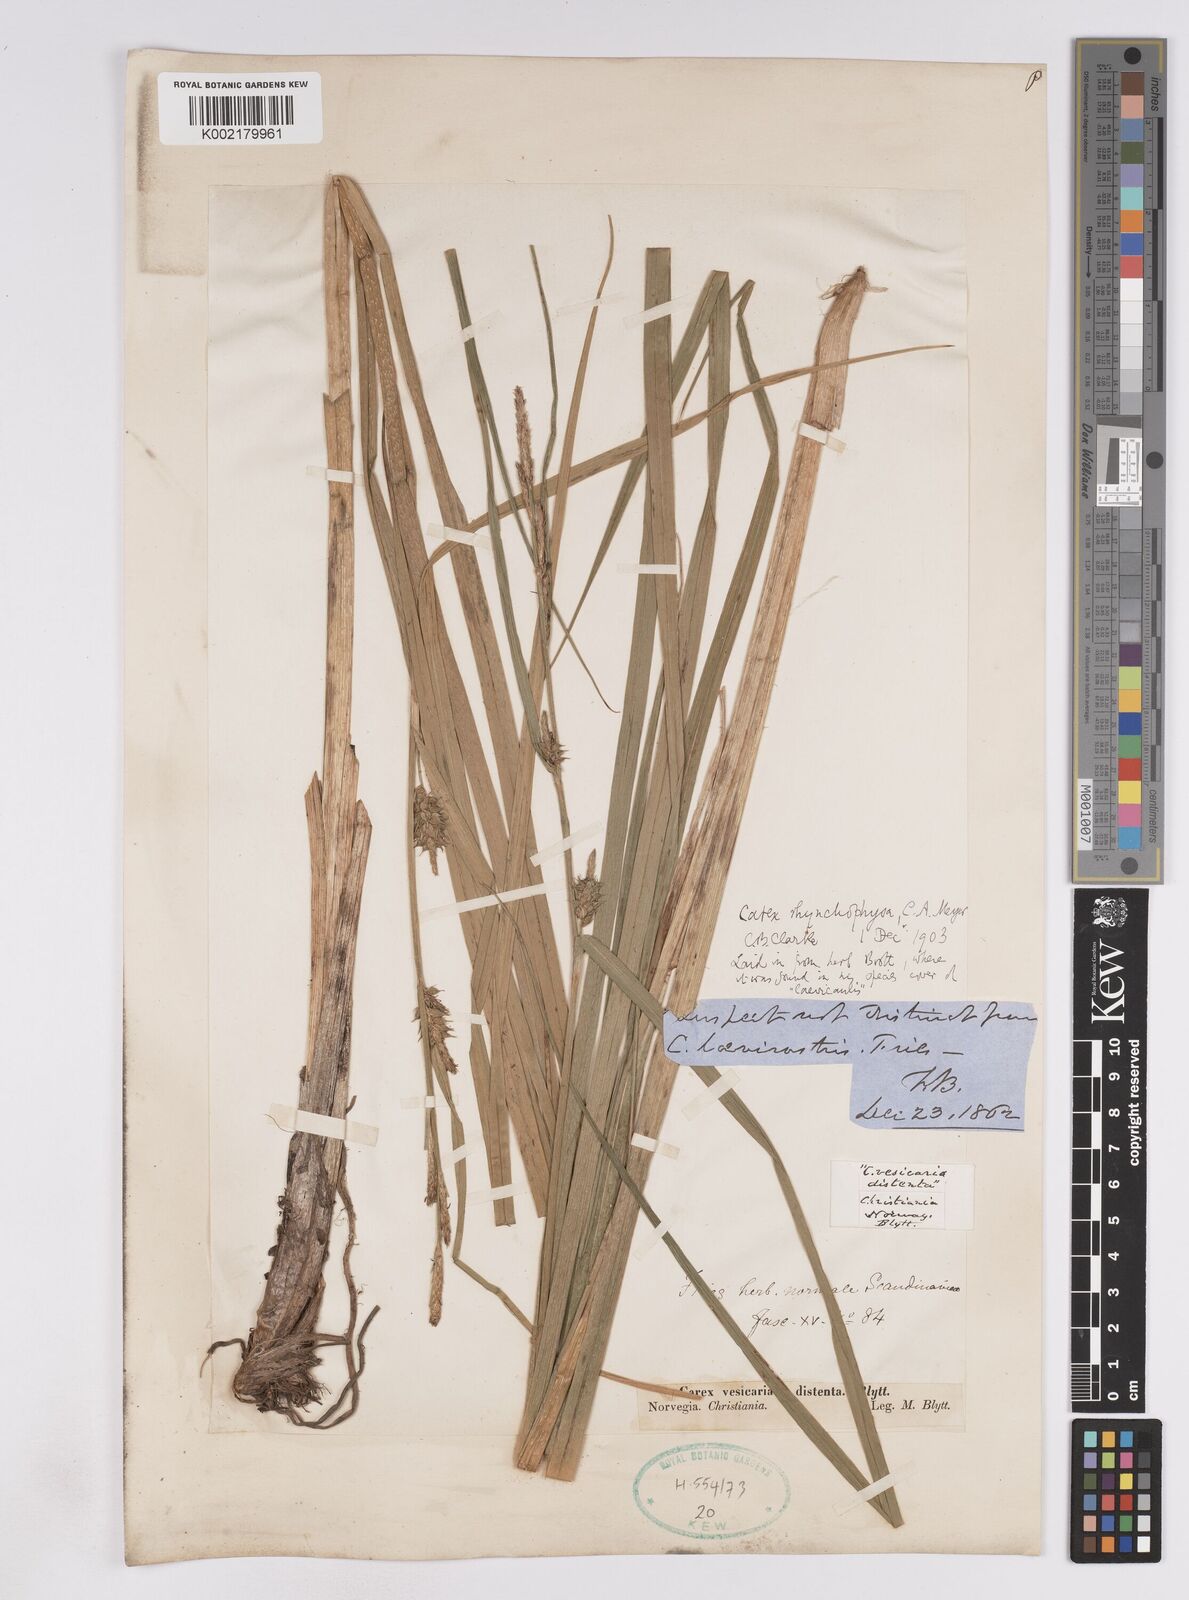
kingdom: Plantae
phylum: Tracheophyta
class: Liliopsida
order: Poales
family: Cyperaceae
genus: Carex
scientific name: Carex utriculata
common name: Beaked sedge
